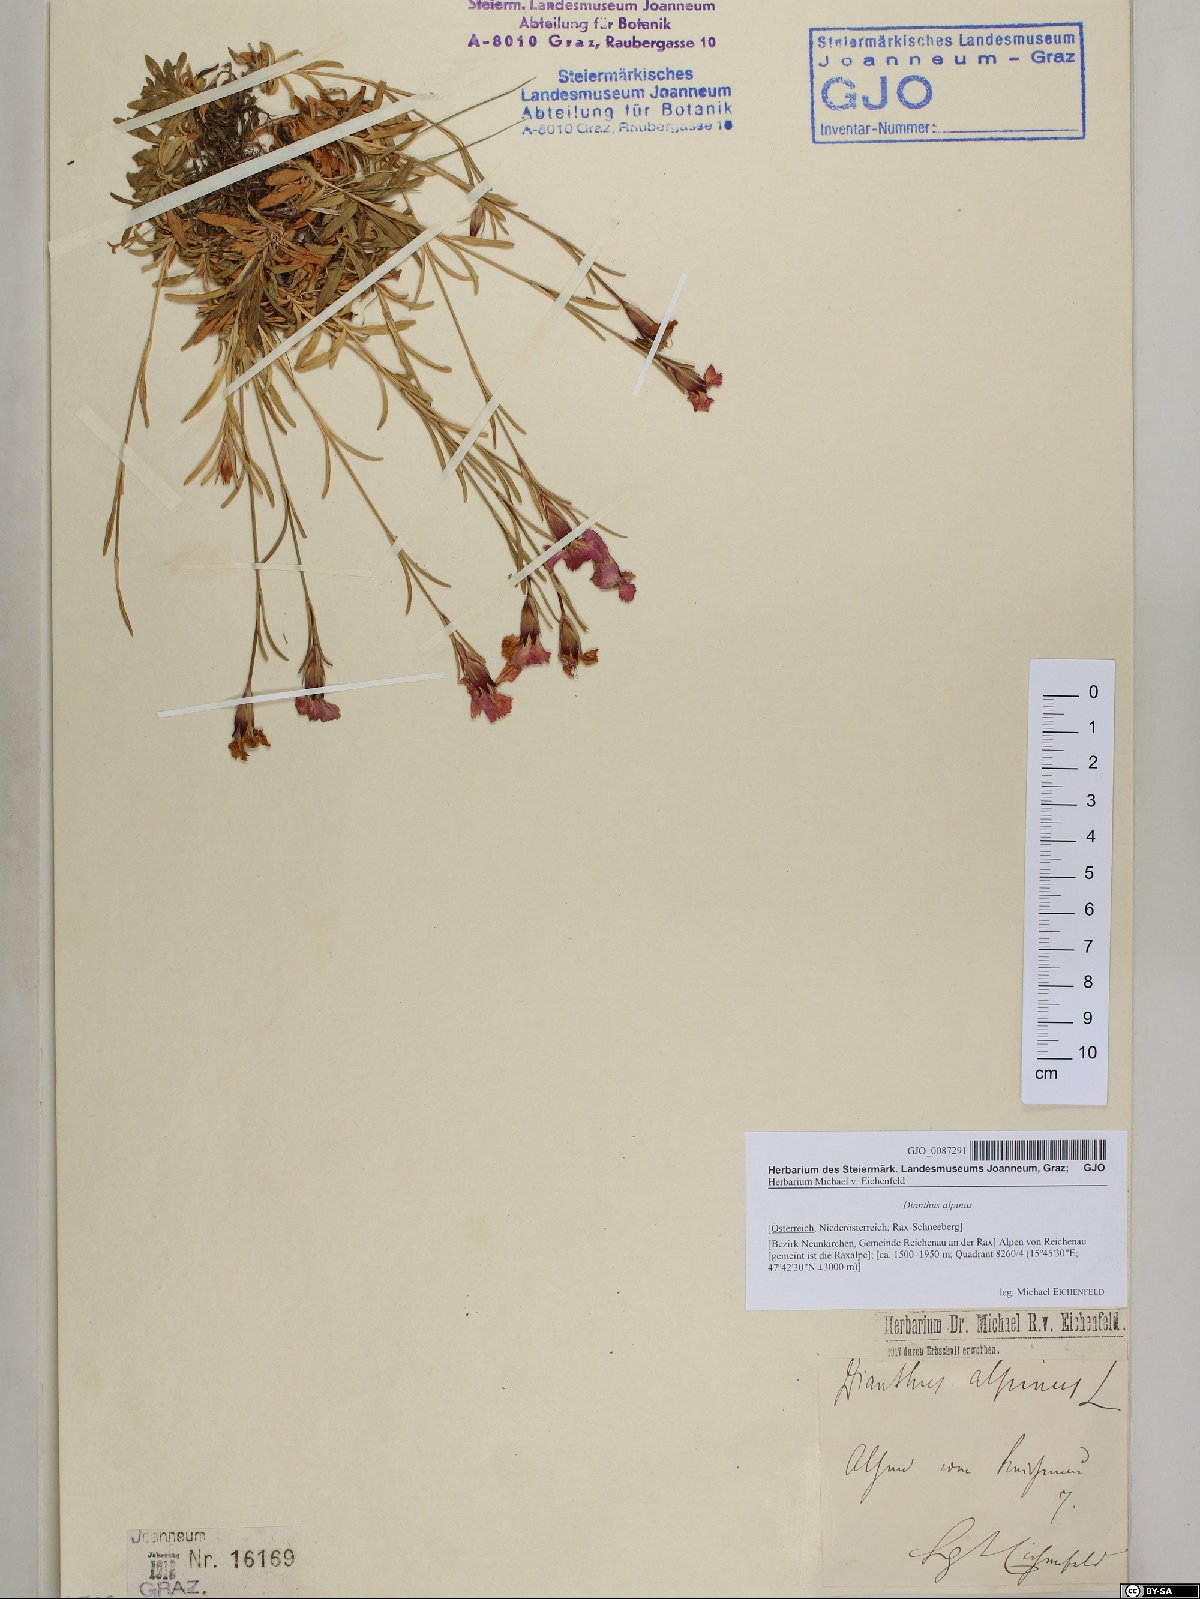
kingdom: Plantae
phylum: Tracheophyta
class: Magnoliopsida
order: Caryophyllales
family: Caryophyllaceae
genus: Dianthus
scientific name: Dianthus alpinus
